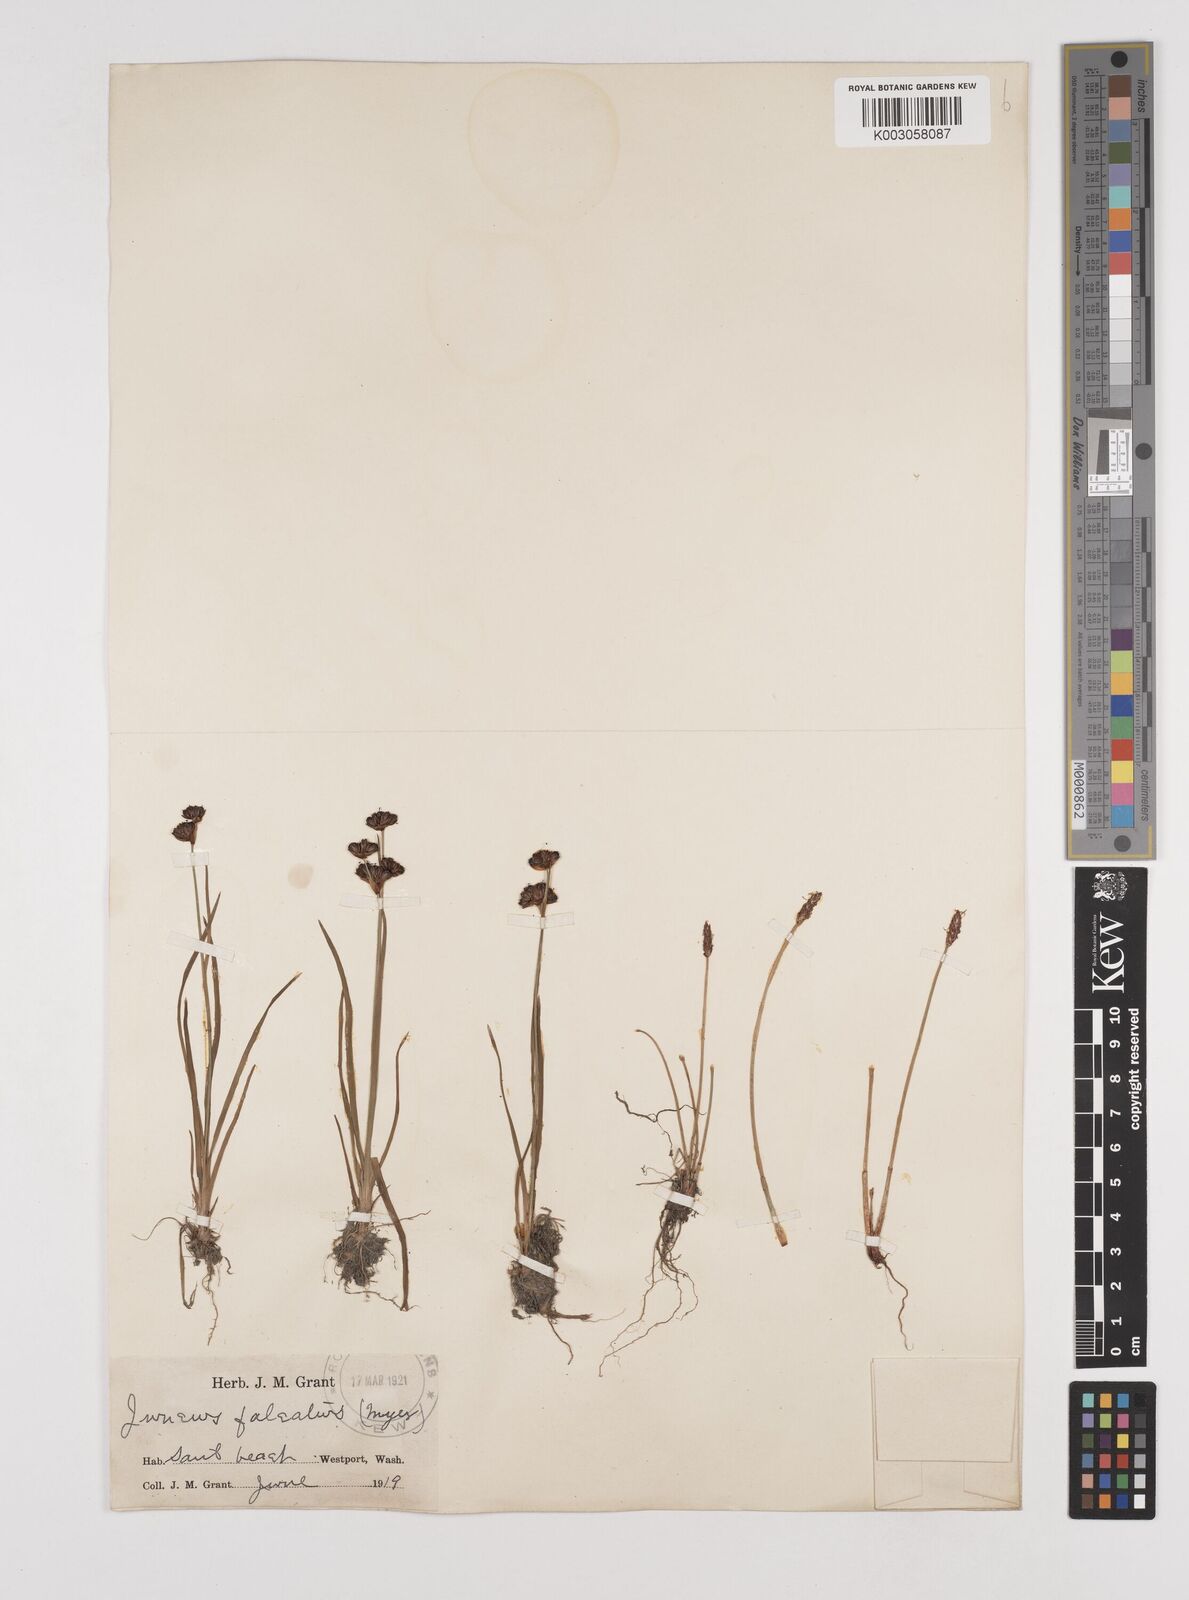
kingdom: Plantae
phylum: Tracheophyta
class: Liliopsida
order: Poales
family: Juncaceae
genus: Juncus
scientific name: Juncus falcatus
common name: Sickle-leaf rush
